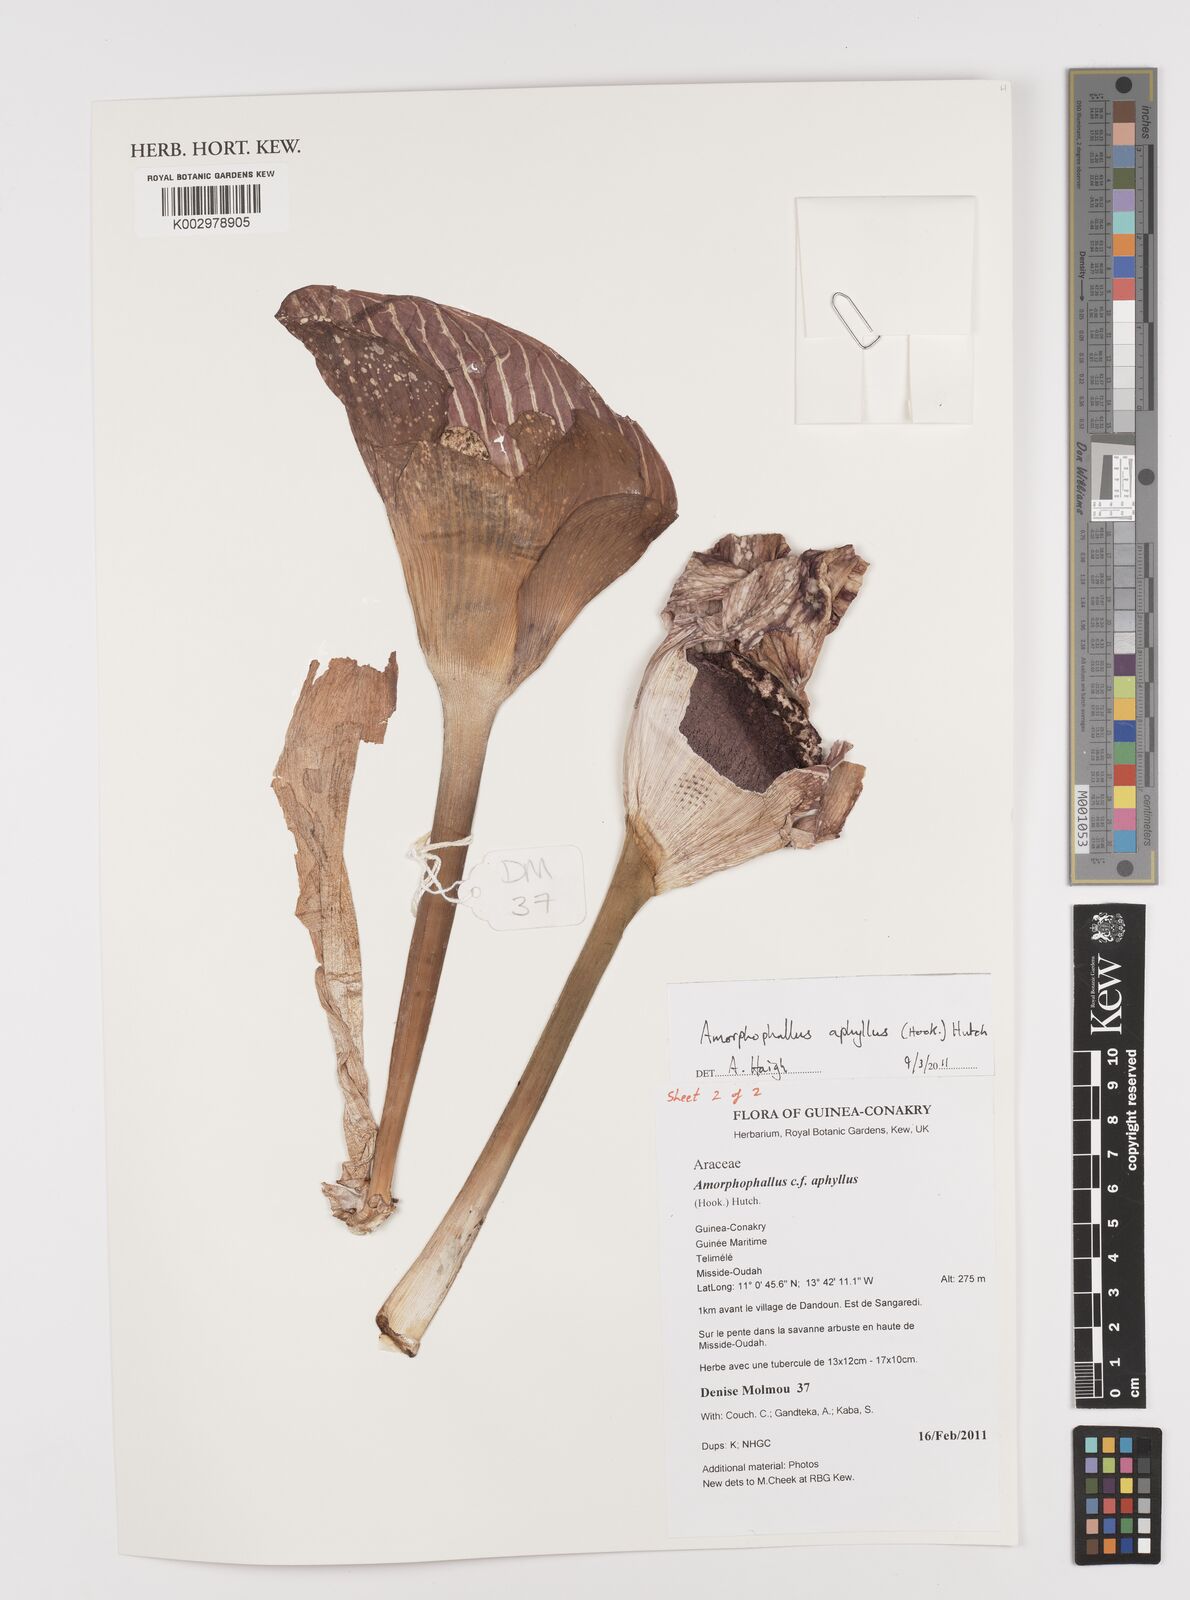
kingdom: Plantae
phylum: Tracheophyta
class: Liliopsida
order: Alismatales
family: Araceae
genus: Amorphophallus
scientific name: Amorphophallus aphyllus
